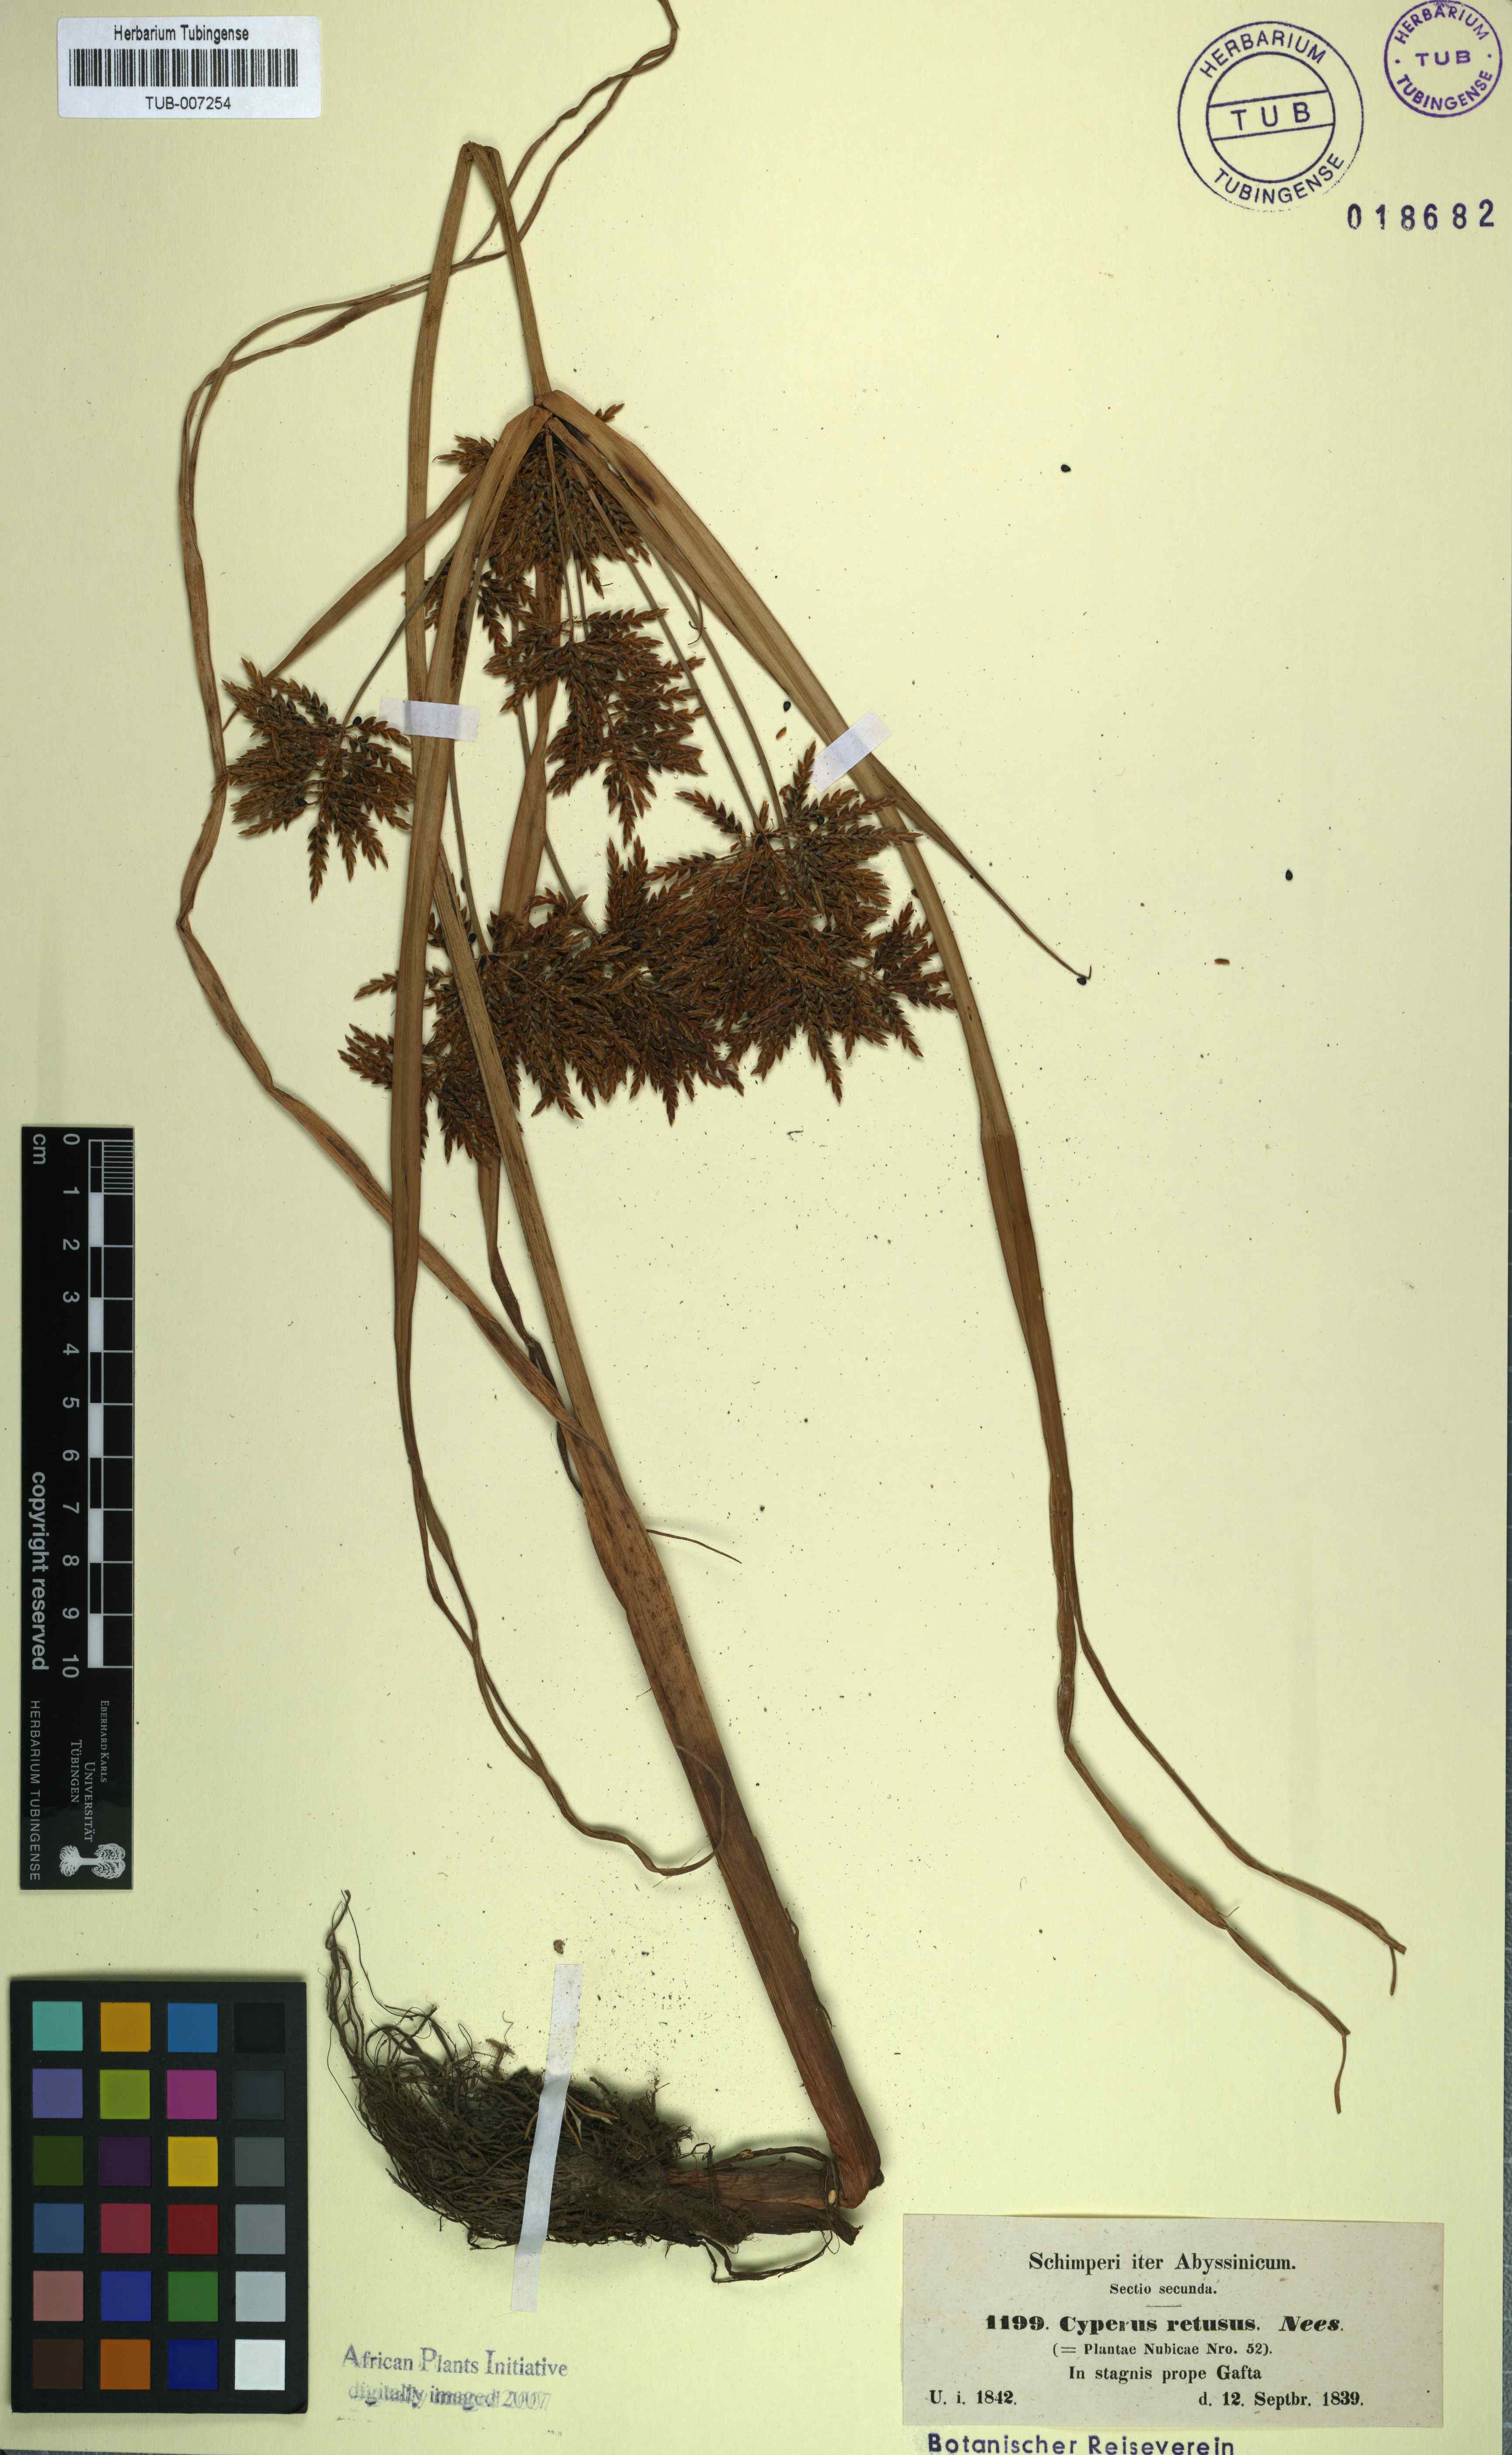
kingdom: Plantae
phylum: Tracheophyta
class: Liliopsida
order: Poales
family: Cyperaceae
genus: Cyperus
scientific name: Cyperus esculentus
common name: Yellow nutsedge
